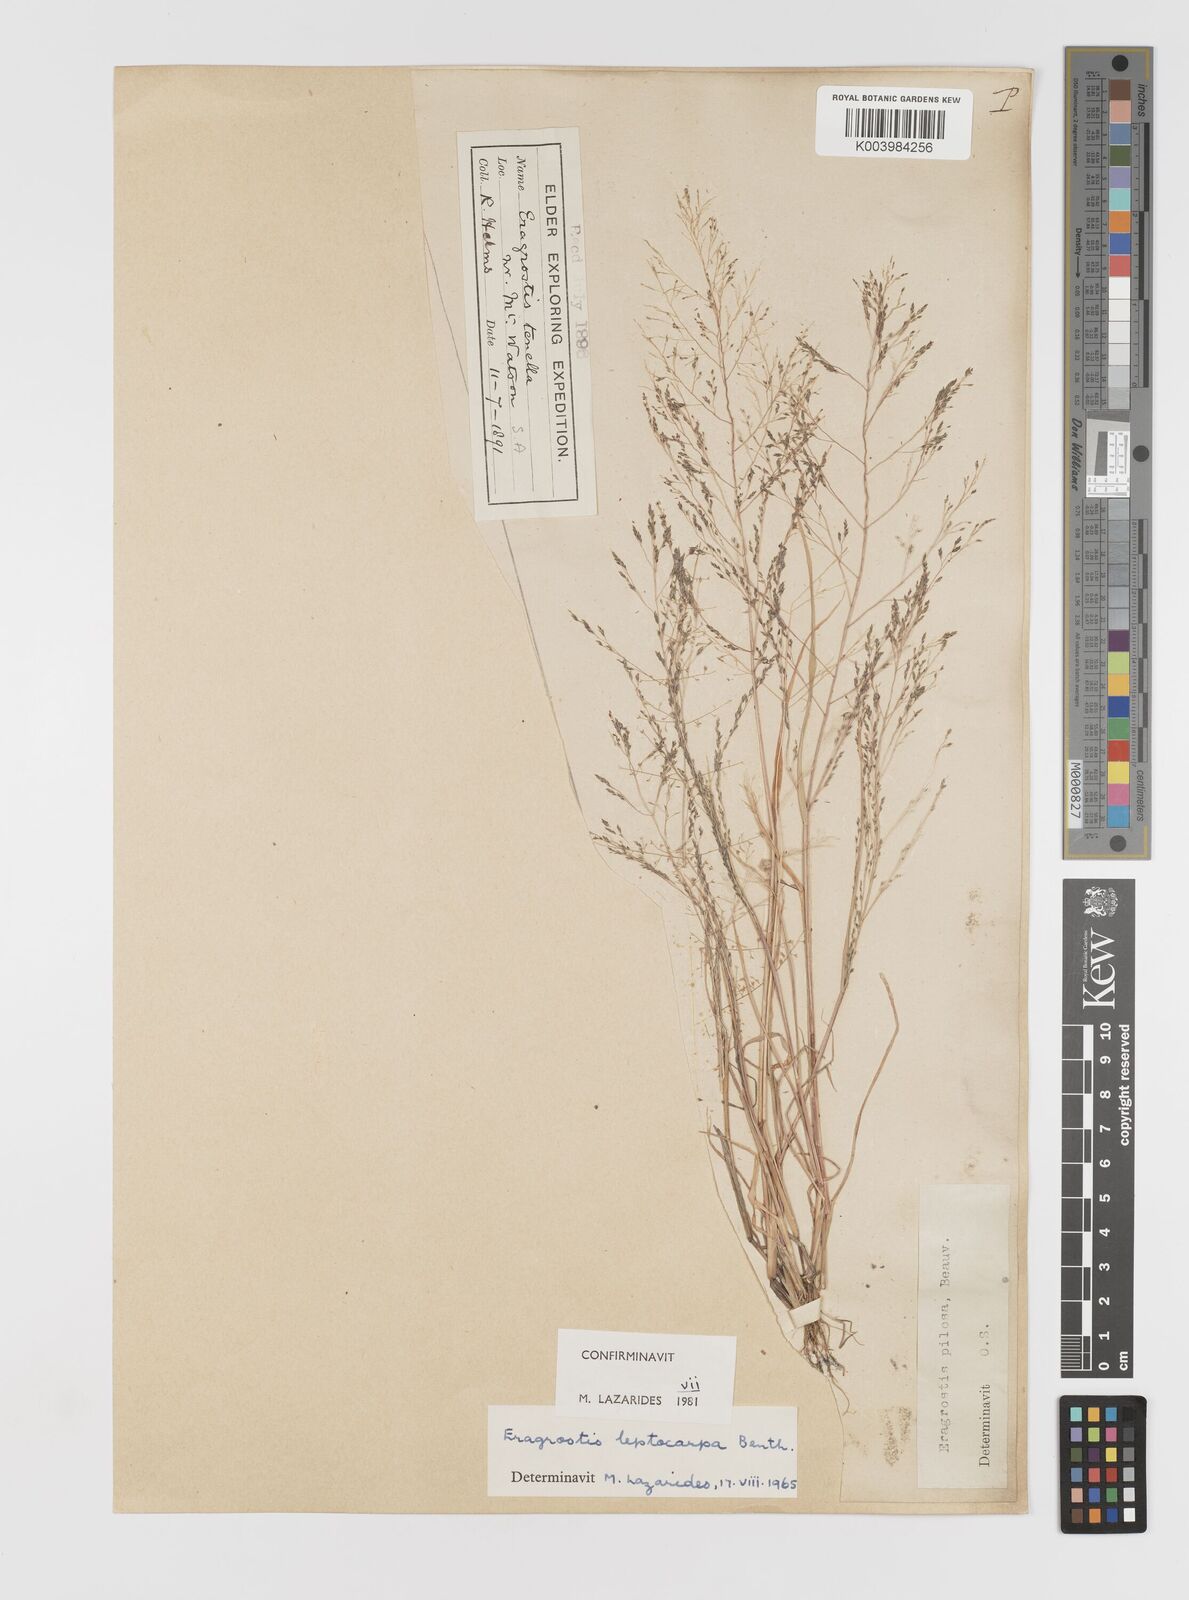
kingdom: Plantae
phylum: Tracheophyta
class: Liliopsida
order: Poales
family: Poaceae
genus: Eragrostis
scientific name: Eragrostis leptocarpa
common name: Drooping love grass
